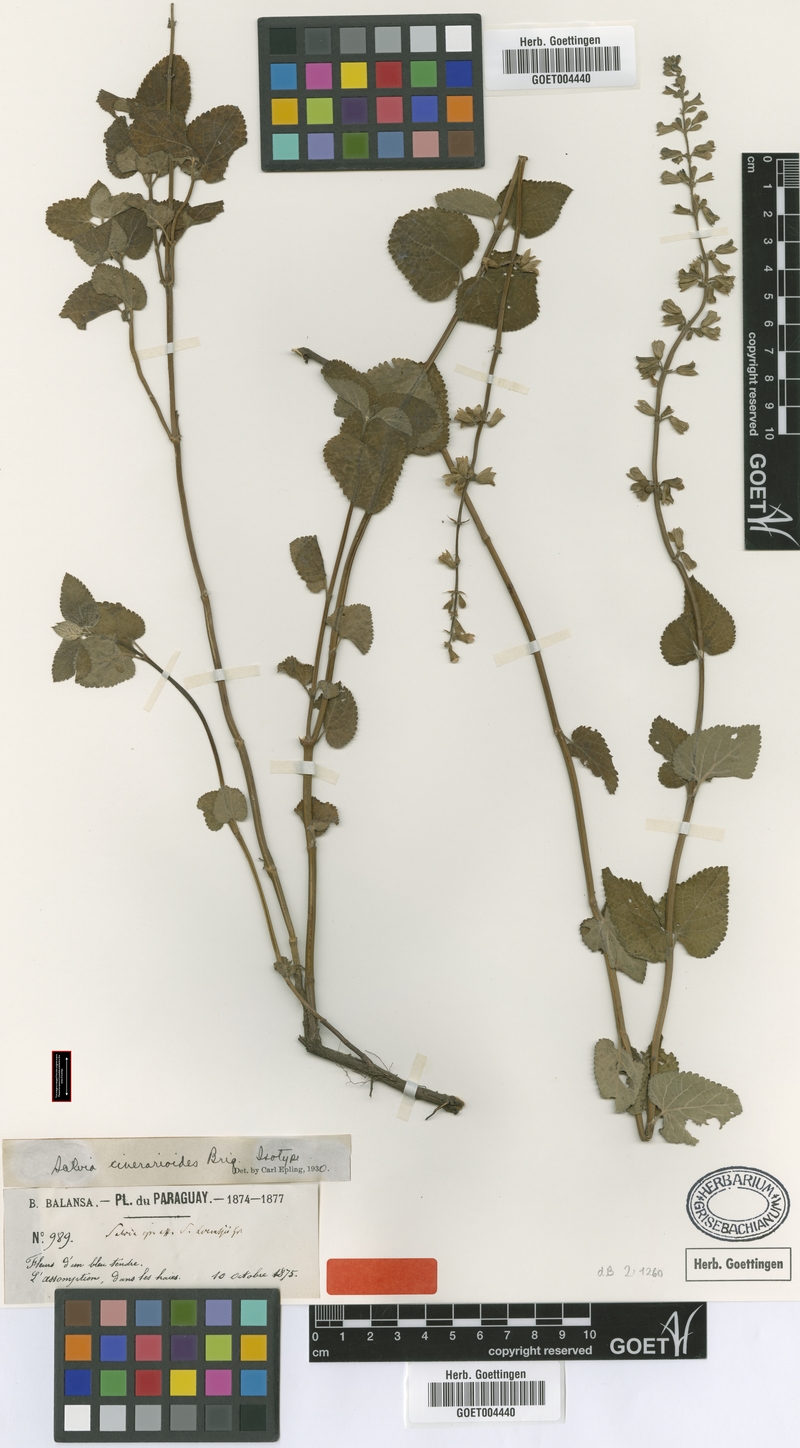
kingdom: Plantae
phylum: Tracheophyta
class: Magnoliopsida
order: Lamiales
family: Lamiaceae
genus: Salvia
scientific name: Salvia cardiophylla
